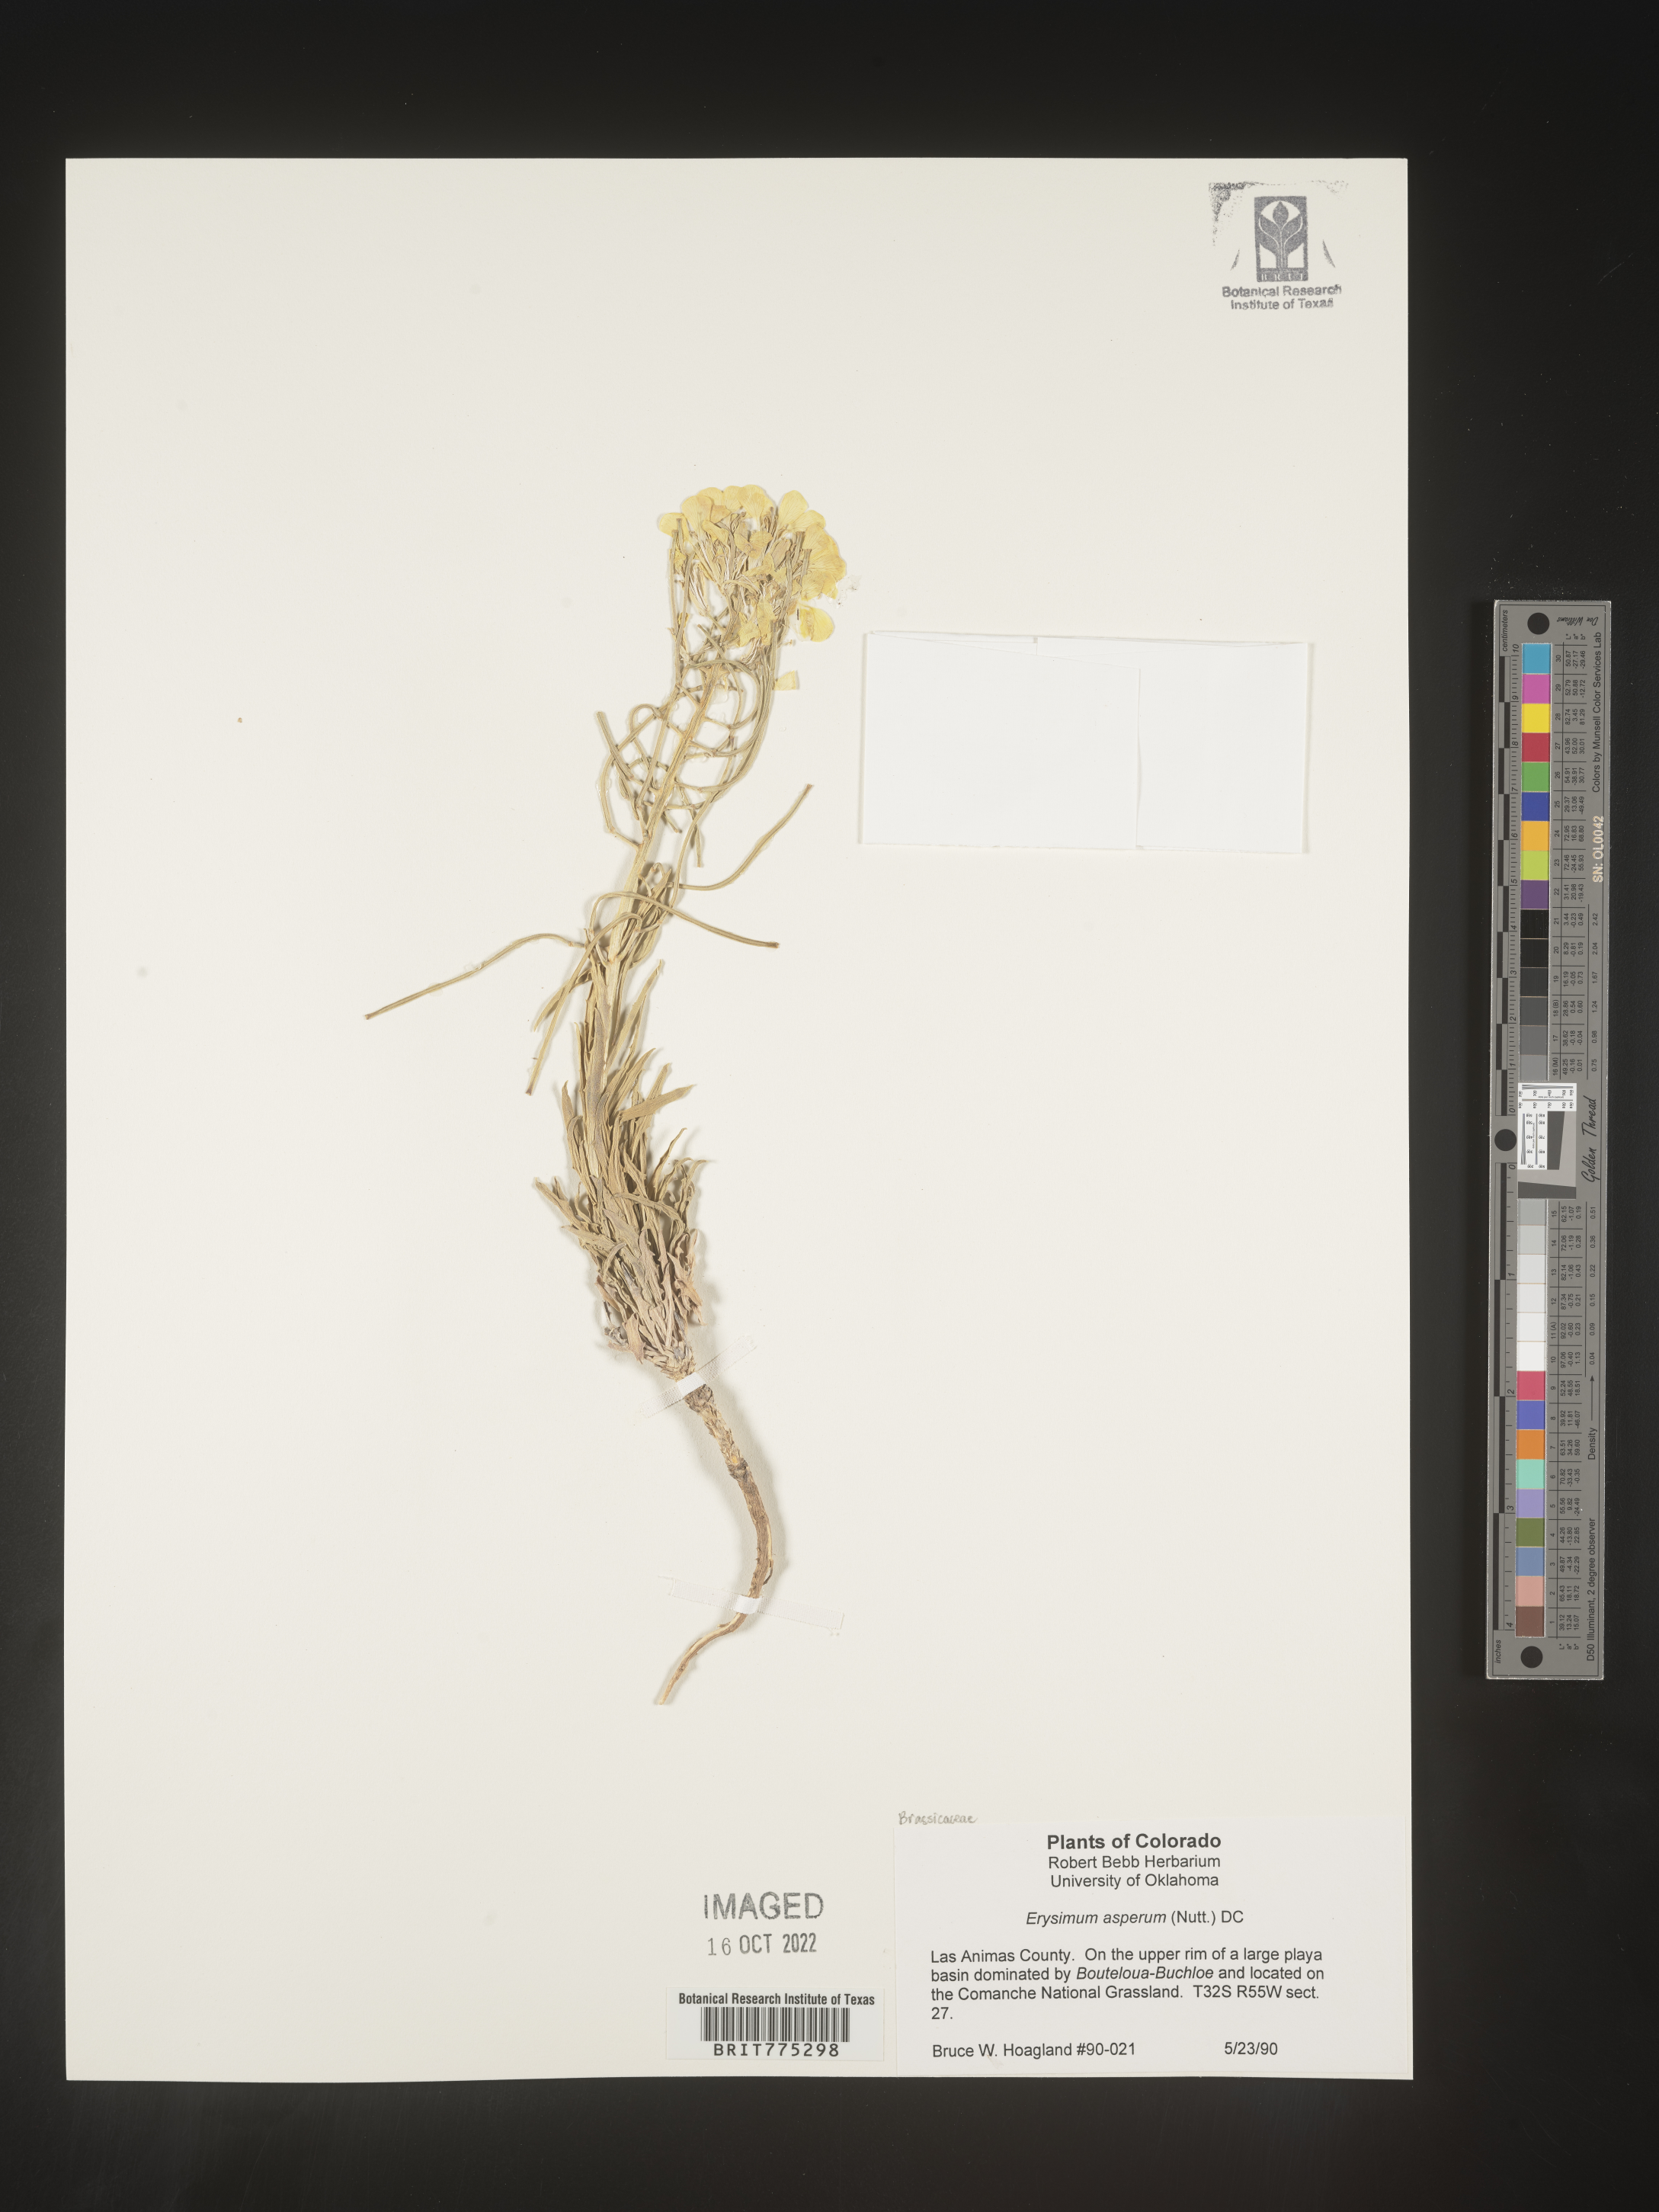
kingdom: Plantae
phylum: Tracheophyta
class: Magnoliopsida
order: Brassicales
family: Brassicaceae
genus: Erysimum
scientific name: Erysimum asperum
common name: Western wallflower
